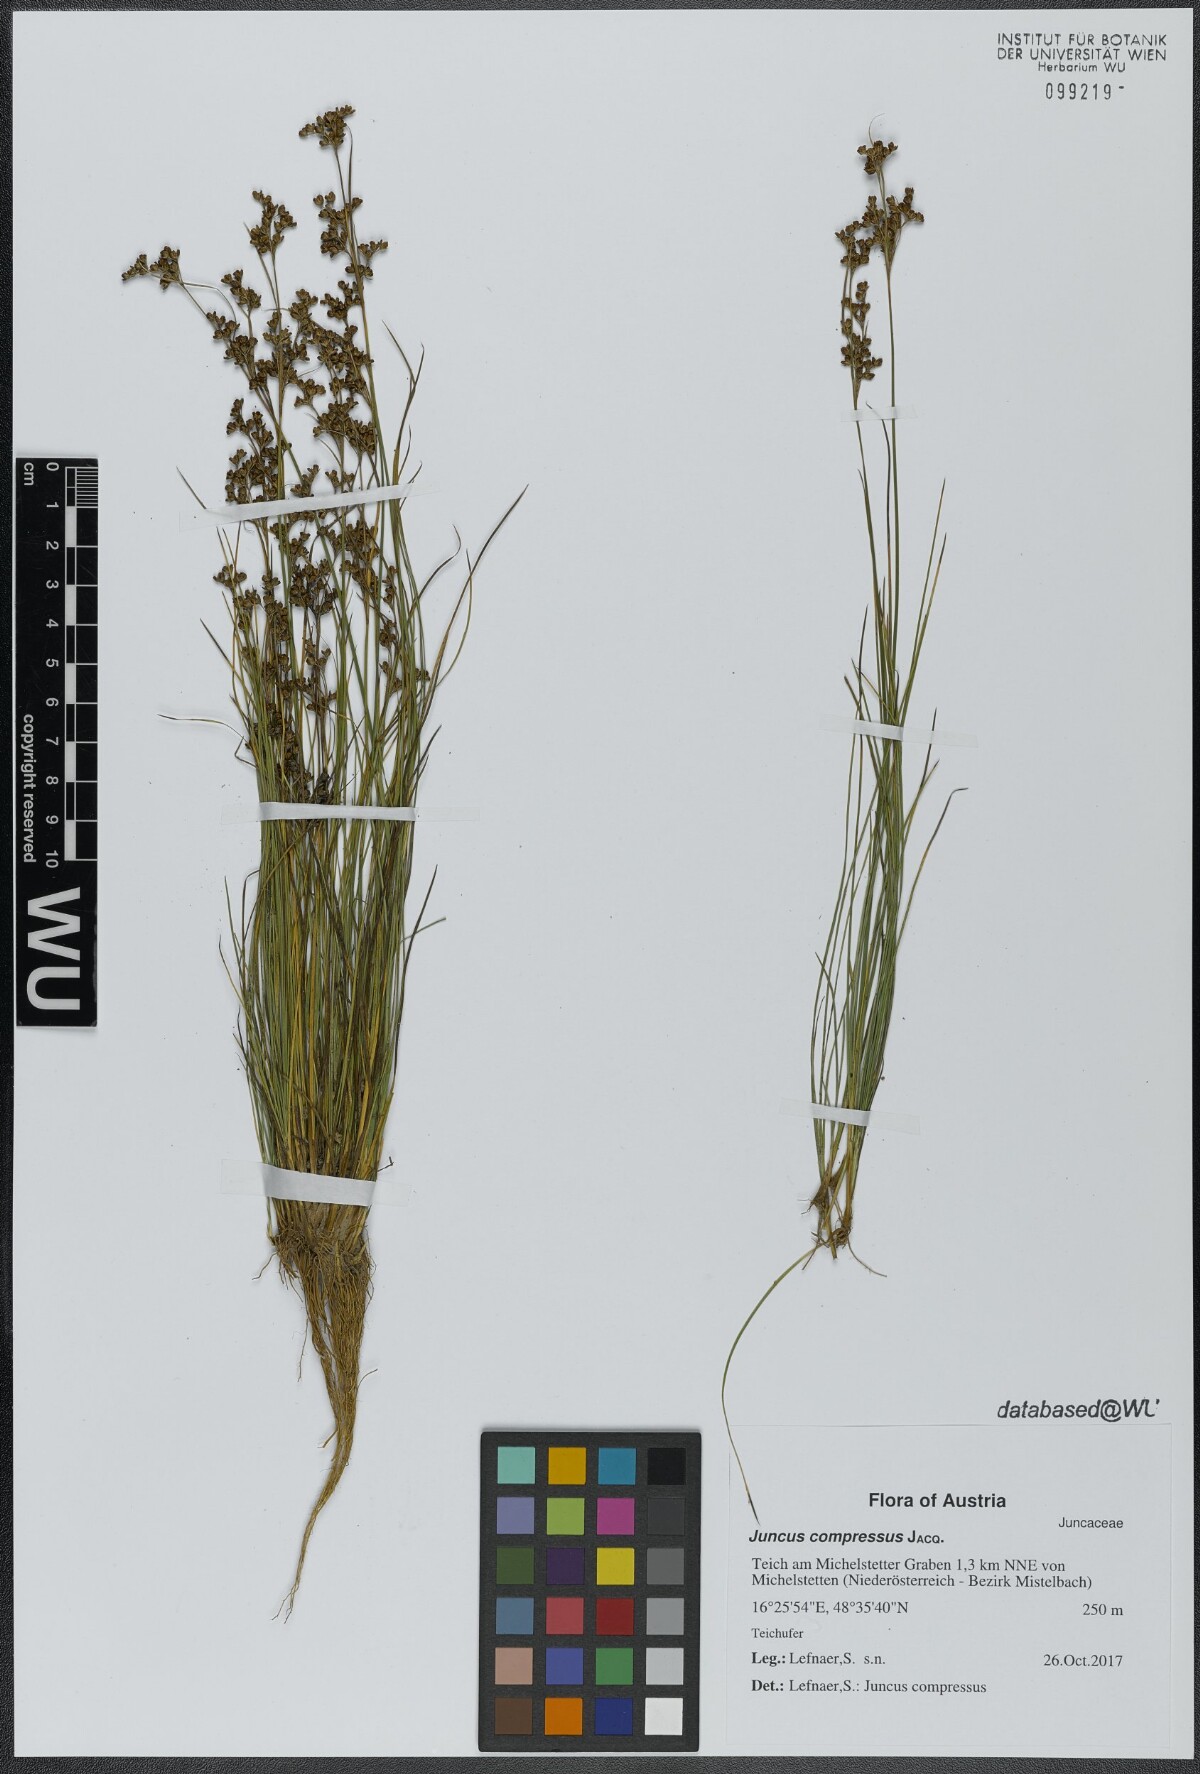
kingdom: Plantae
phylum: Tracheophyta
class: Liliopsida
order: Poales
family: Juncaceae
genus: Juncus
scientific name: Juncus compressus
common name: Round-fruited rush
